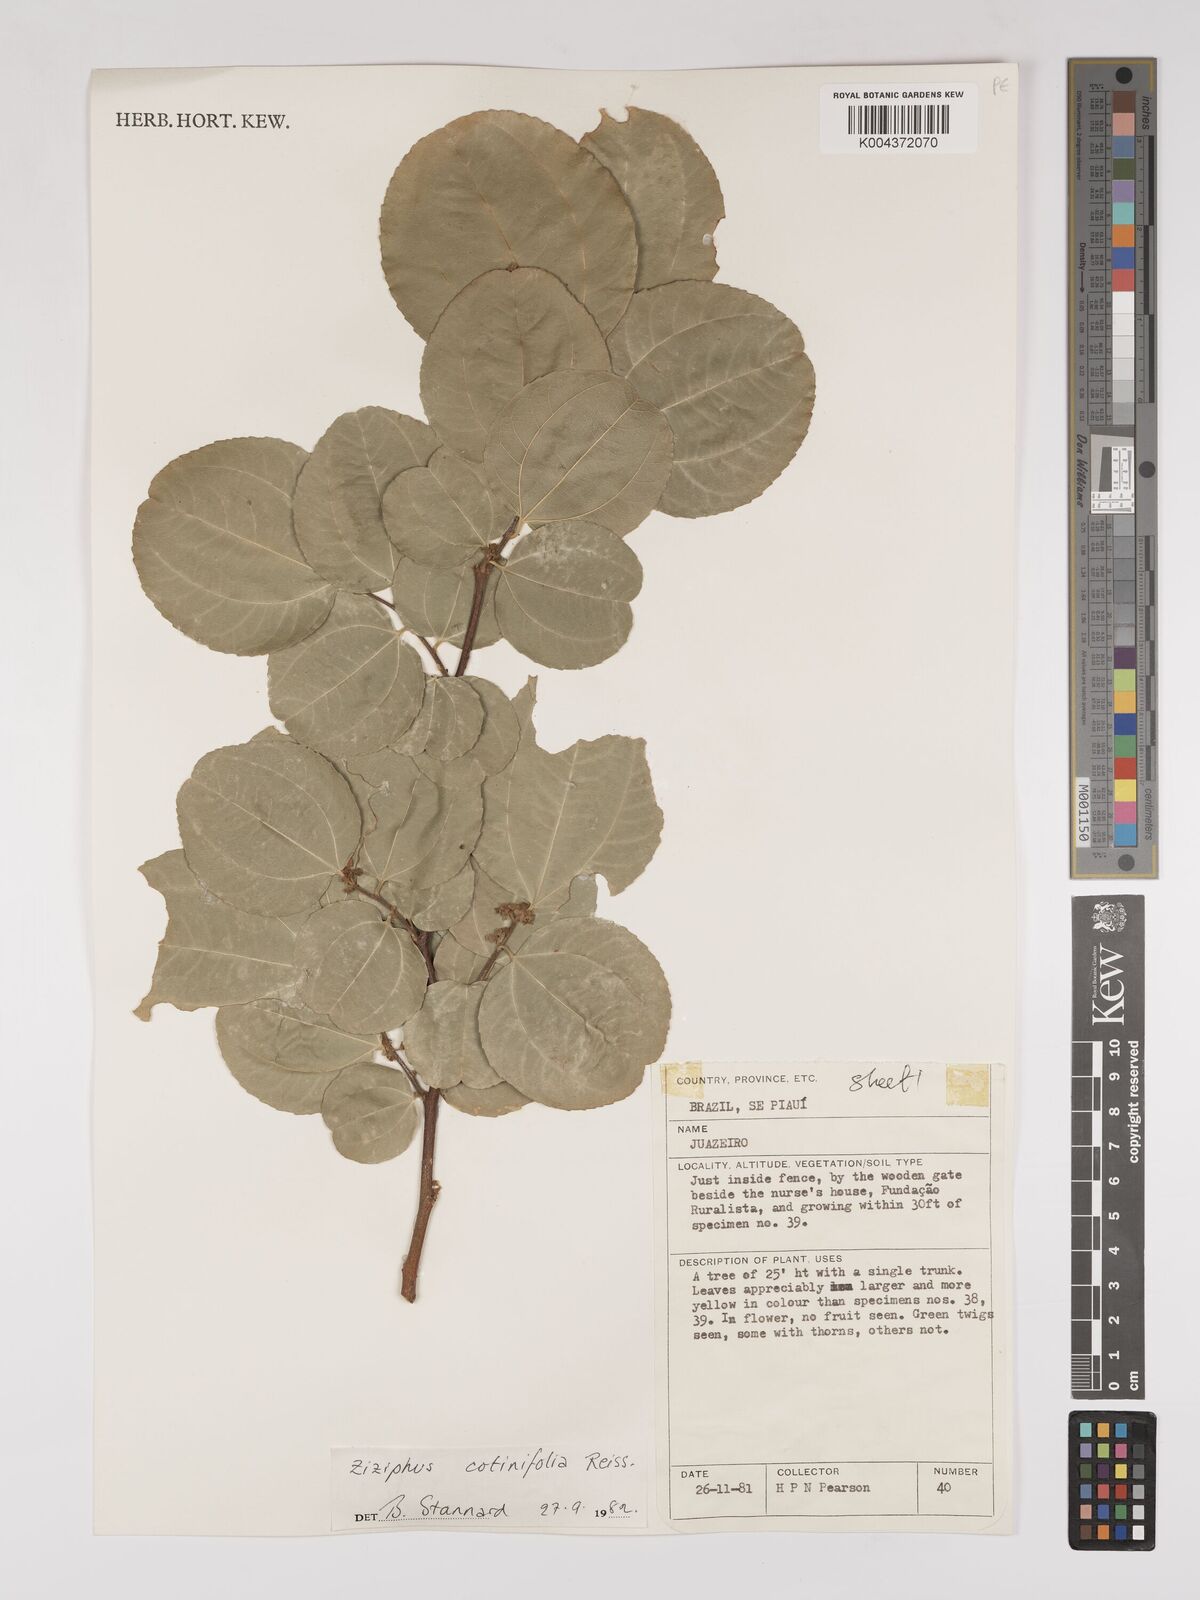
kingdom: Plantae
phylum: Tracheophyta
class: Magnoliopsida
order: Rosales
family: Rhamnaceae
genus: Sarcomphalus
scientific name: Sarcomphalus cotinifolius
